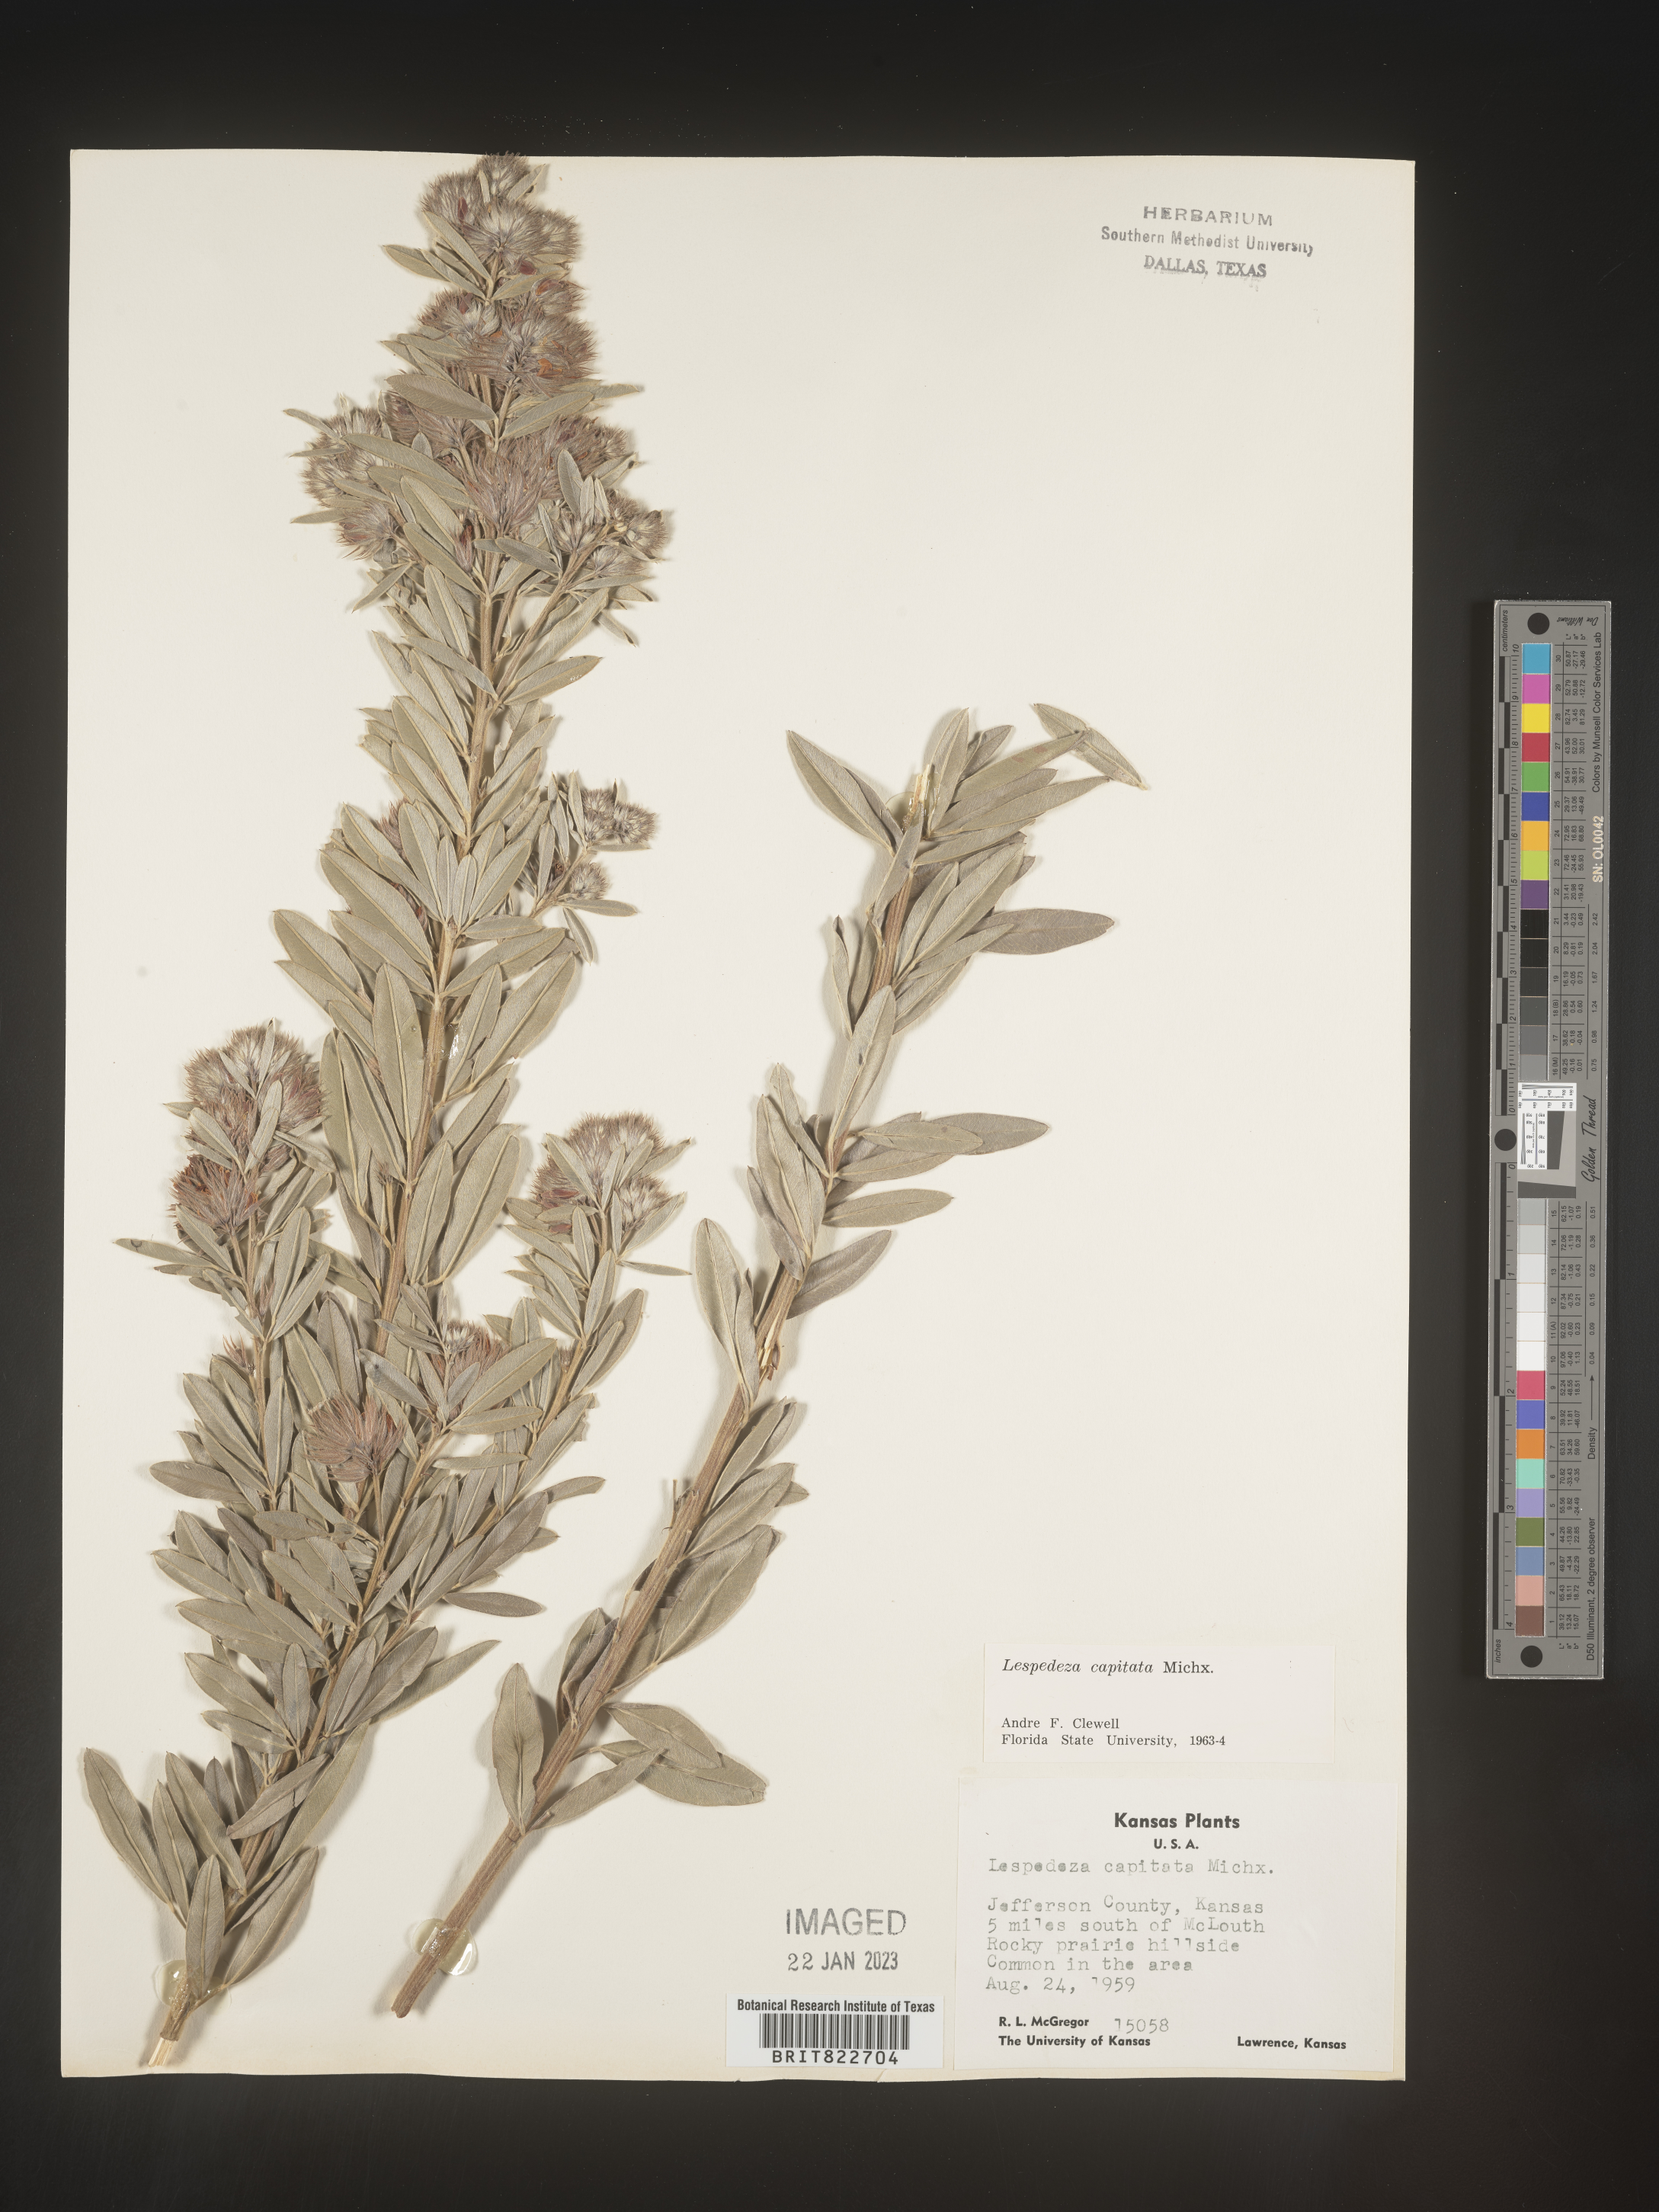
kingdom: Plantae
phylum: Tracheophyta
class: Magnoliopsida
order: Fabales
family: Fabaceae
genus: Lespedeza
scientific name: Lespedeza capitata
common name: Dusty clover
